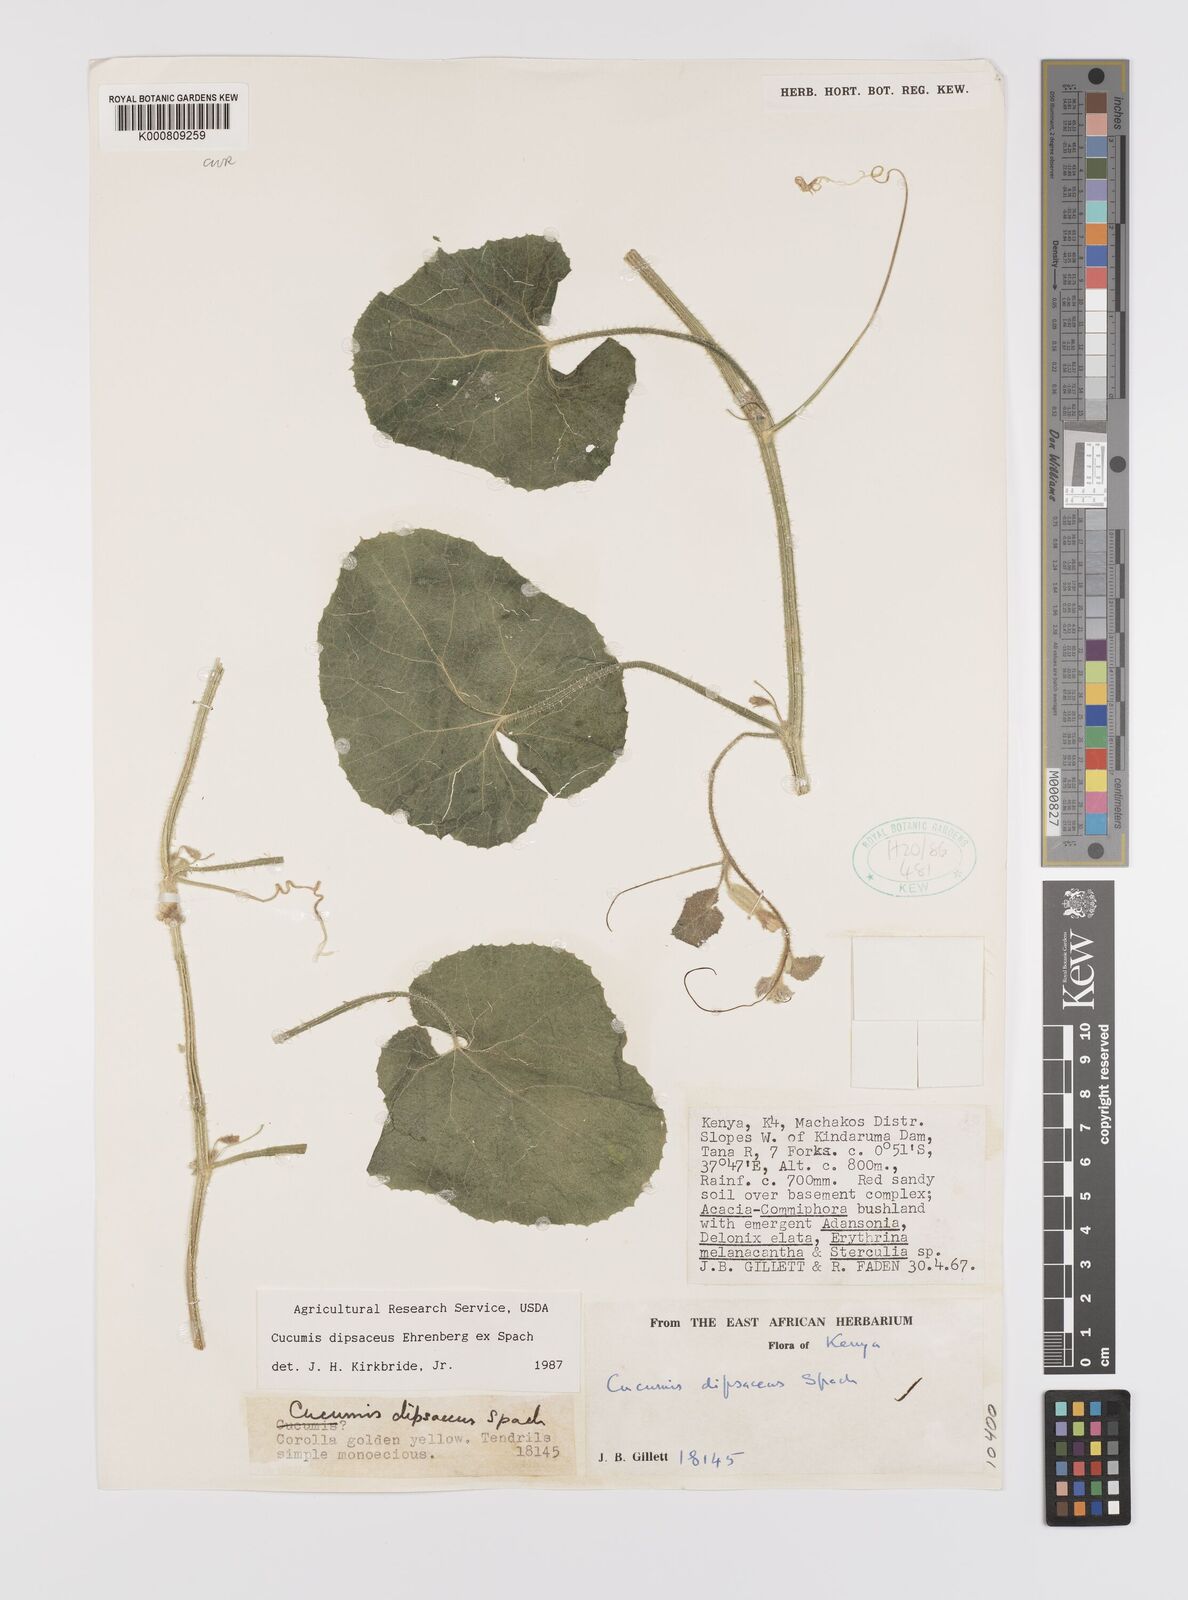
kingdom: Plantae
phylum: Tracheophyta
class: Magnoliopsida
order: Cucurbitales
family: Cucurbitaceae
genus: Cucumis
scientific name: Cucumis dipsaceus
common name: Hedgehog gourd
